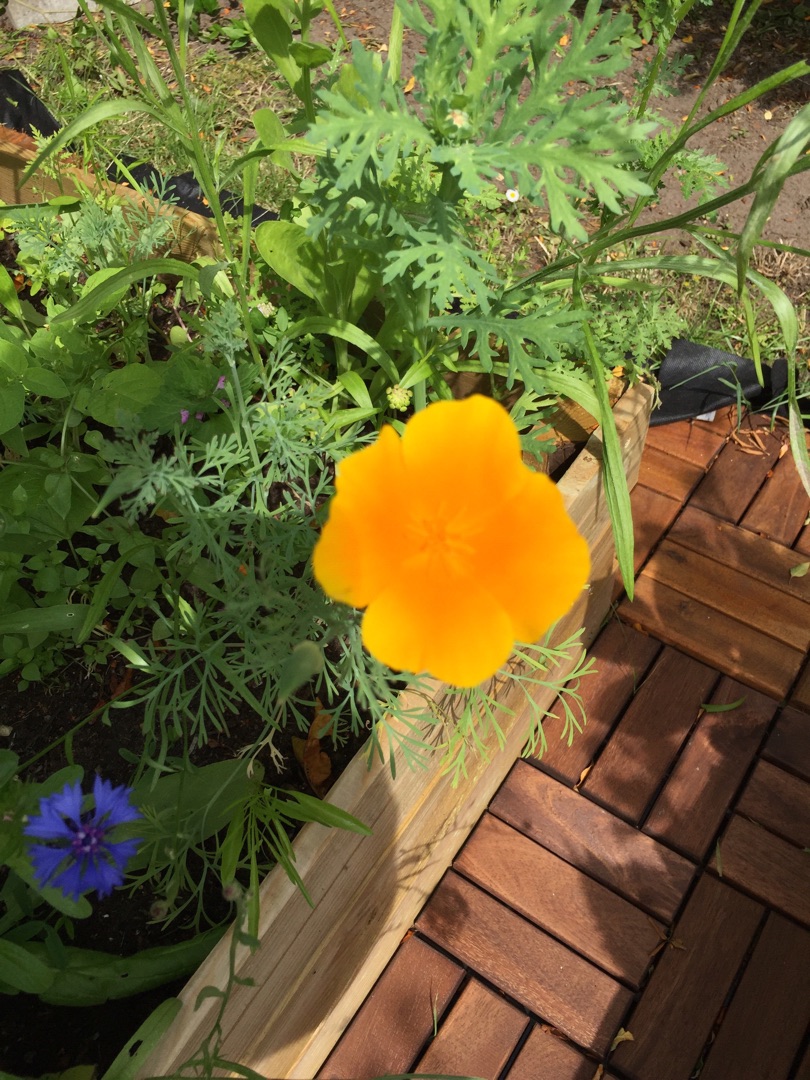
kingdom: Plantae
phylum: Tracheophyta
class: Magnoliopsida
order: Ranunculales
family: Papaveraceae
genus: Eschscholzia
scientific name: Eschscholzia californica
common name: Guldvalmue
